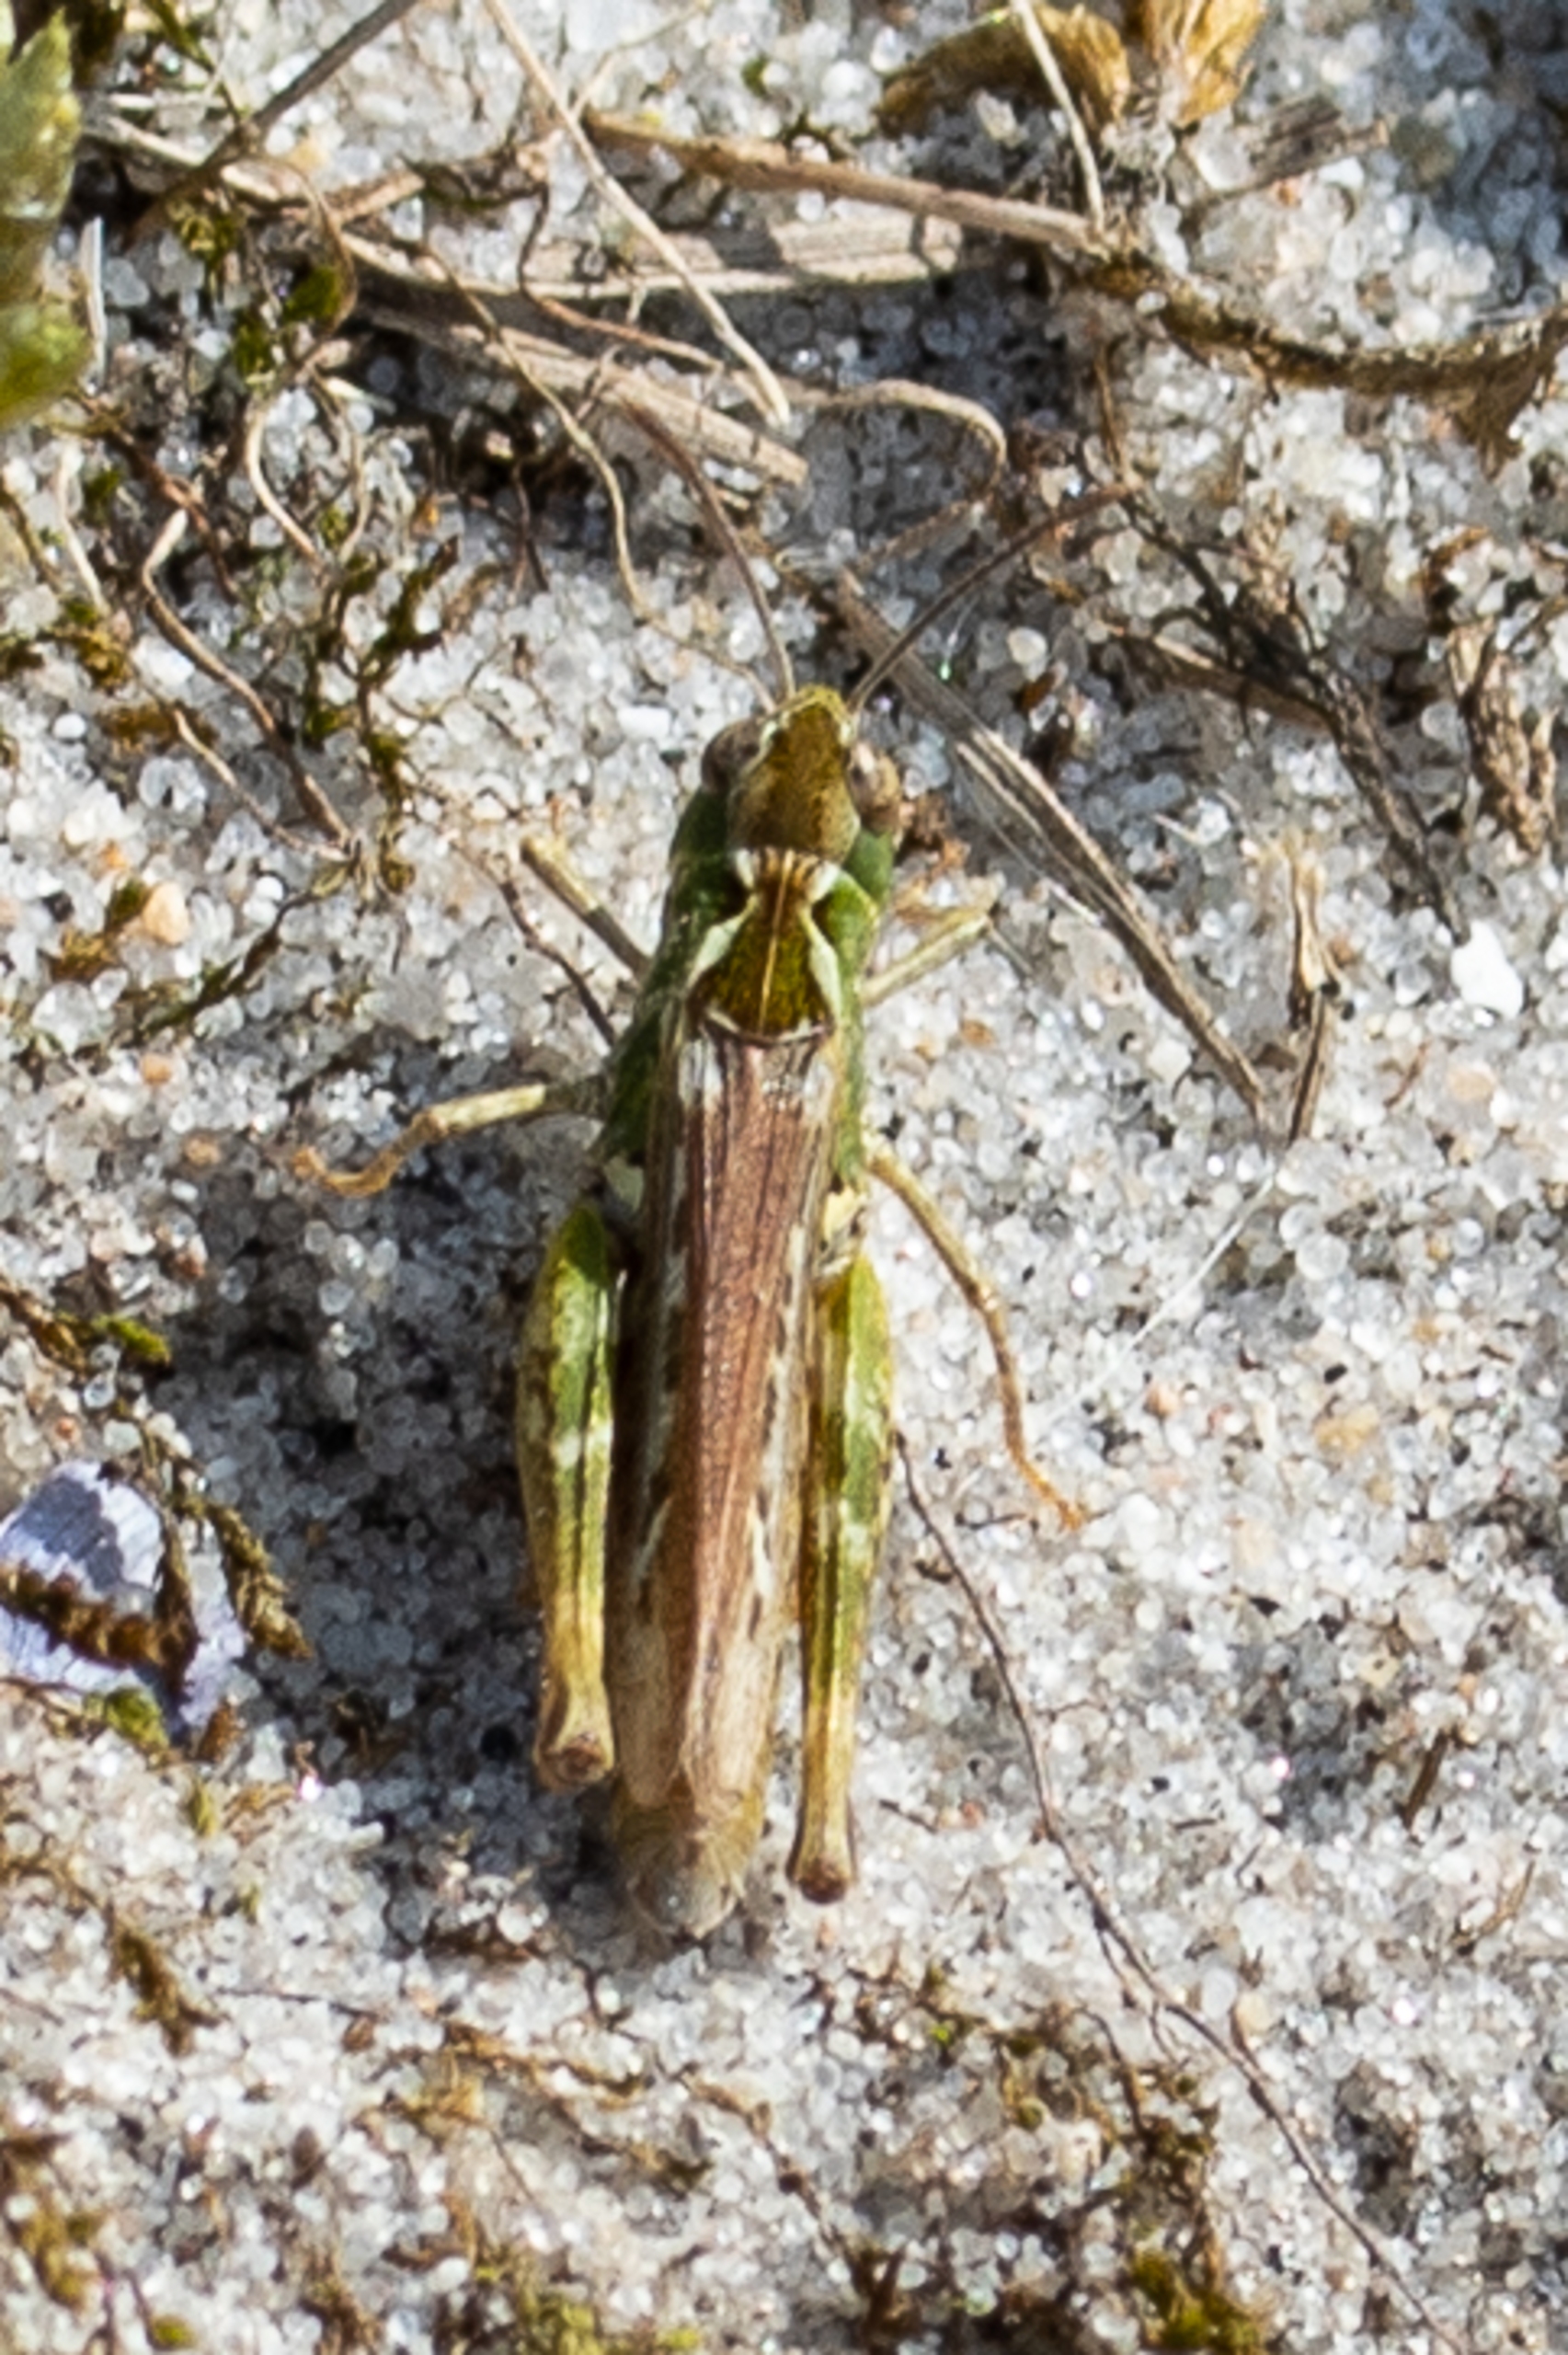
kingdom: Animalia
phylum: Arthropoda
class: Insecta
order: Orthoptera
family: Acrididae
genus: Myrmeleotettix
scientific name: Myrmeleotettix maculatus
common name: Køllegræshoppe
